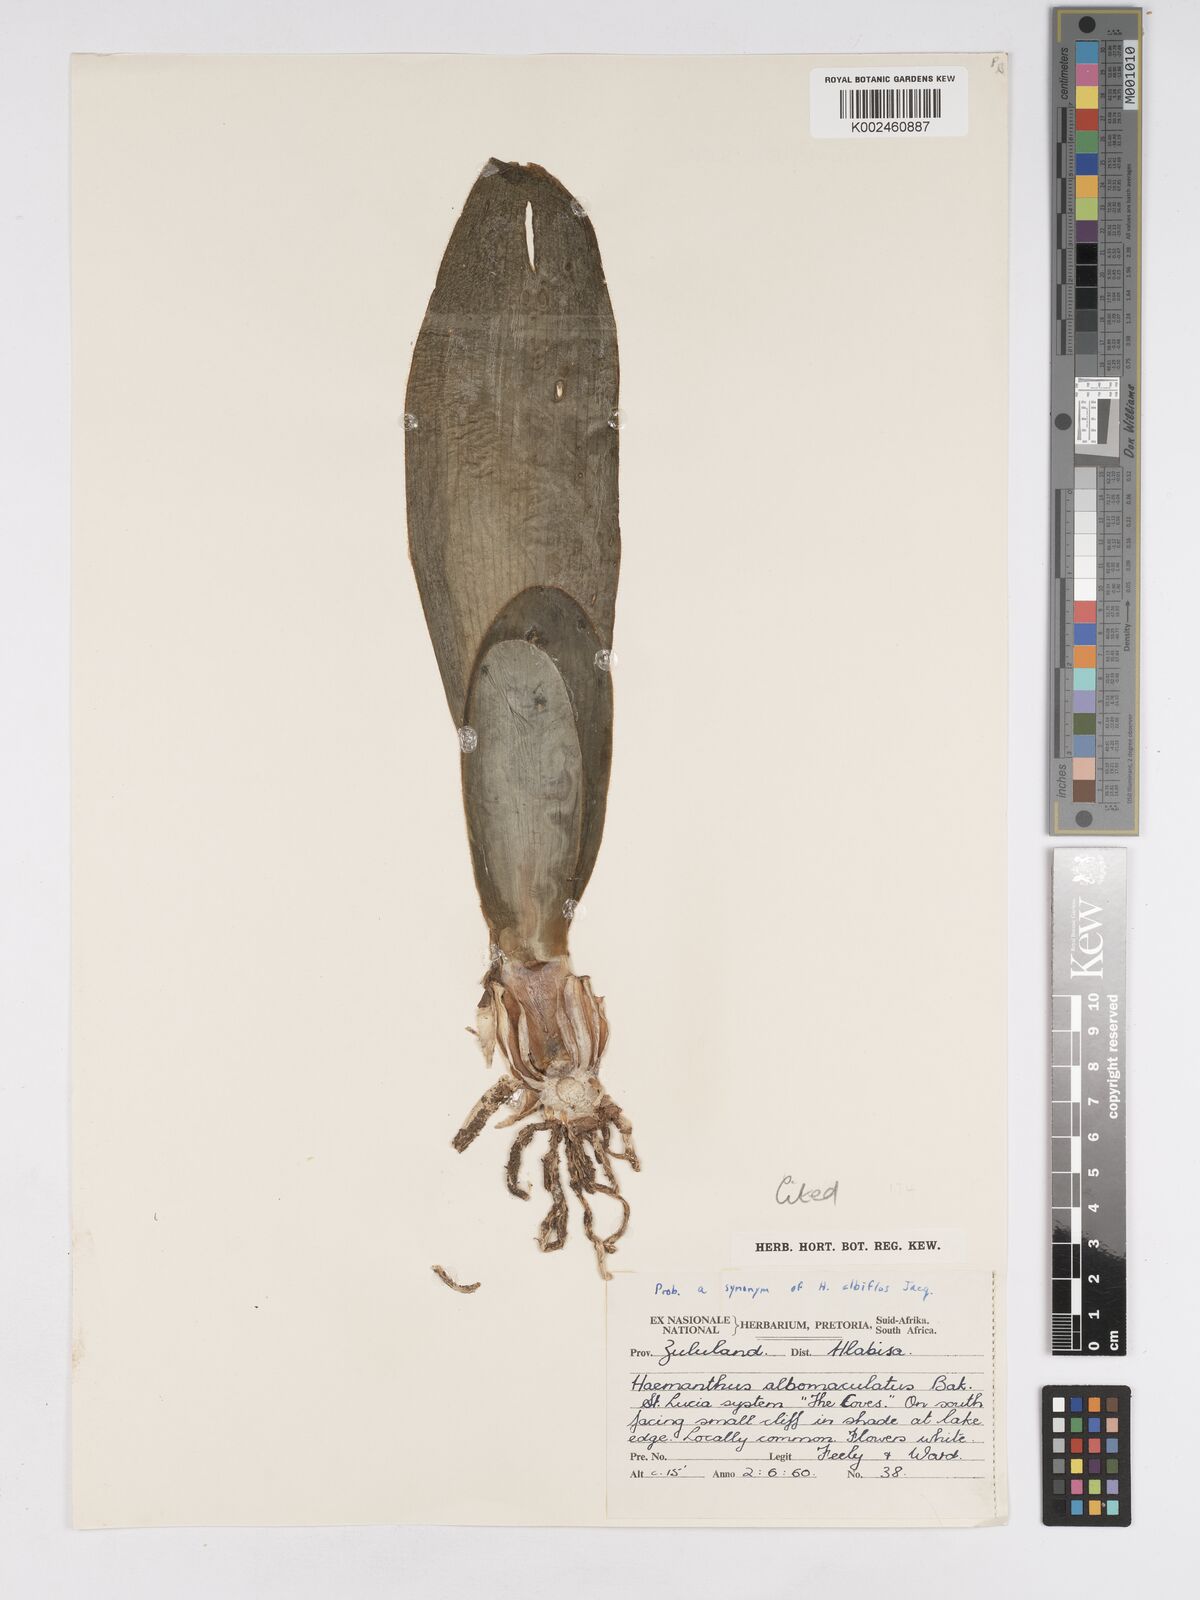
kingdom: Plantae
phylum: Tracheophyta
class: Liliopsida
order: Asparagales
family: Amaryllidaceae
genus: Haemanthus
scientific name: Haemanthus albiflos
